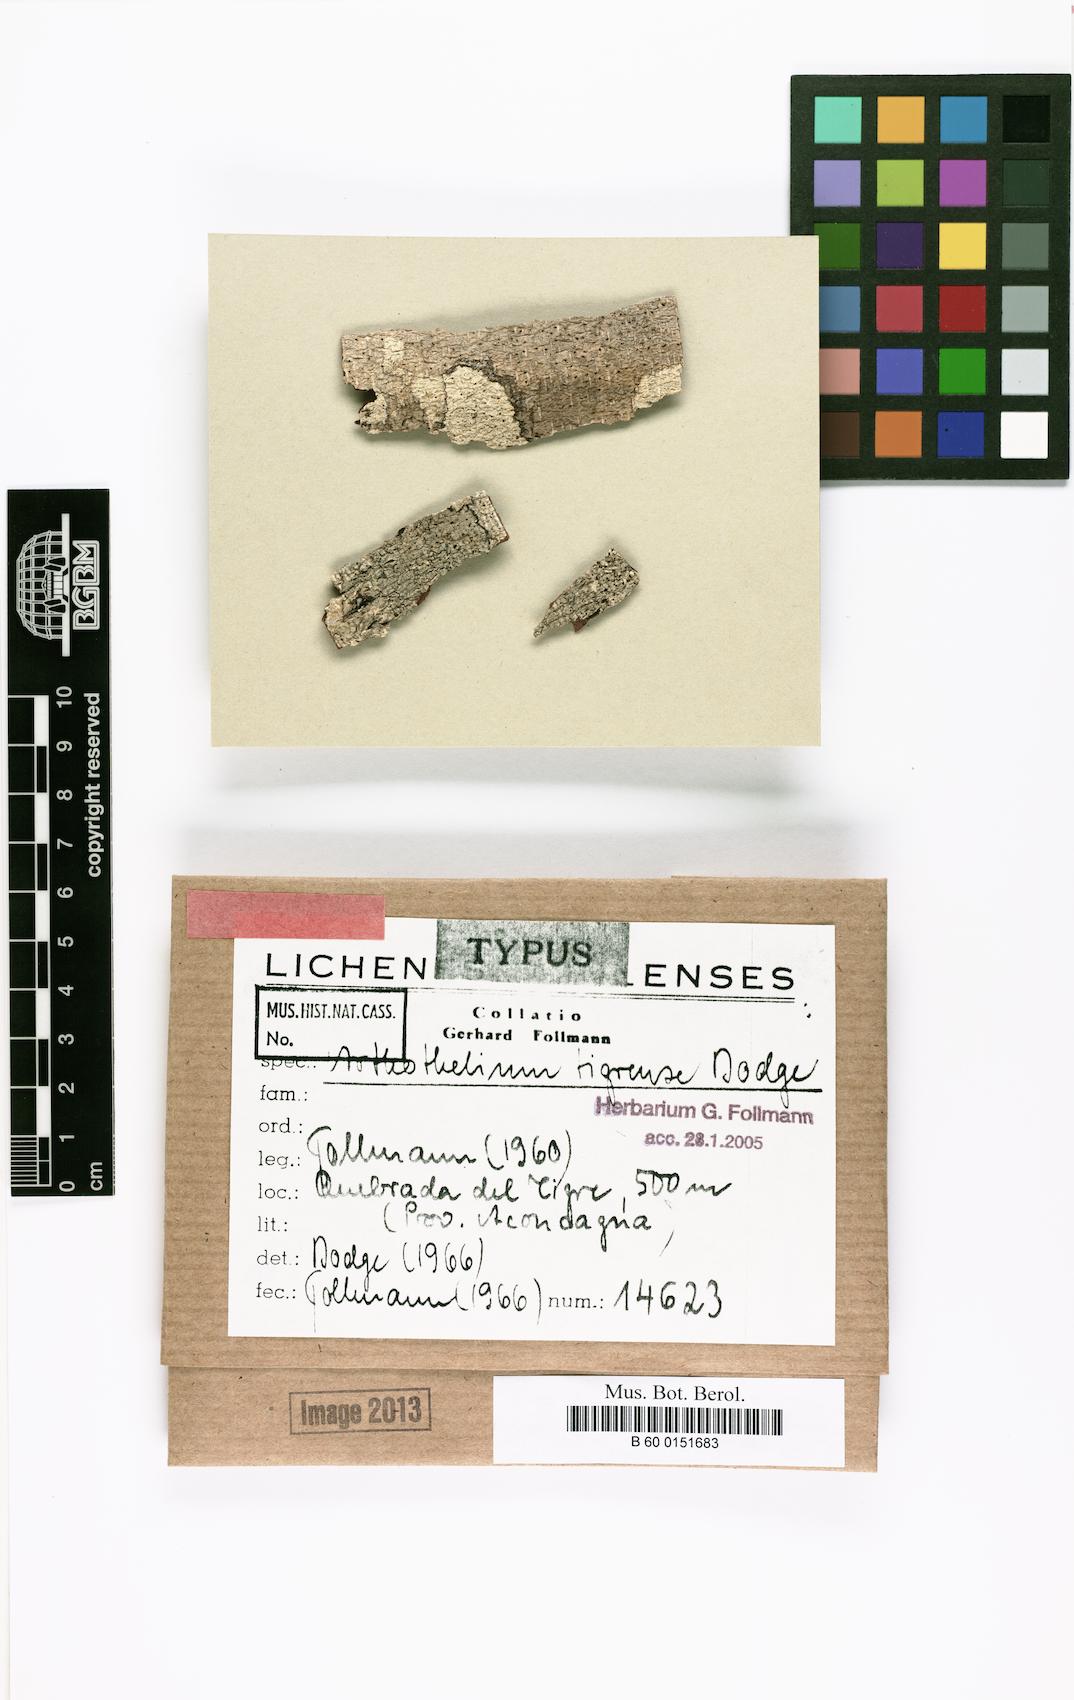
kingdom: Fungi
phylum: Ascomycota
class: Arthoniomycetes
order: Arthoniales
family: Arthoniaceae
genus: Arthothelium
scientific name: Arthothelium
